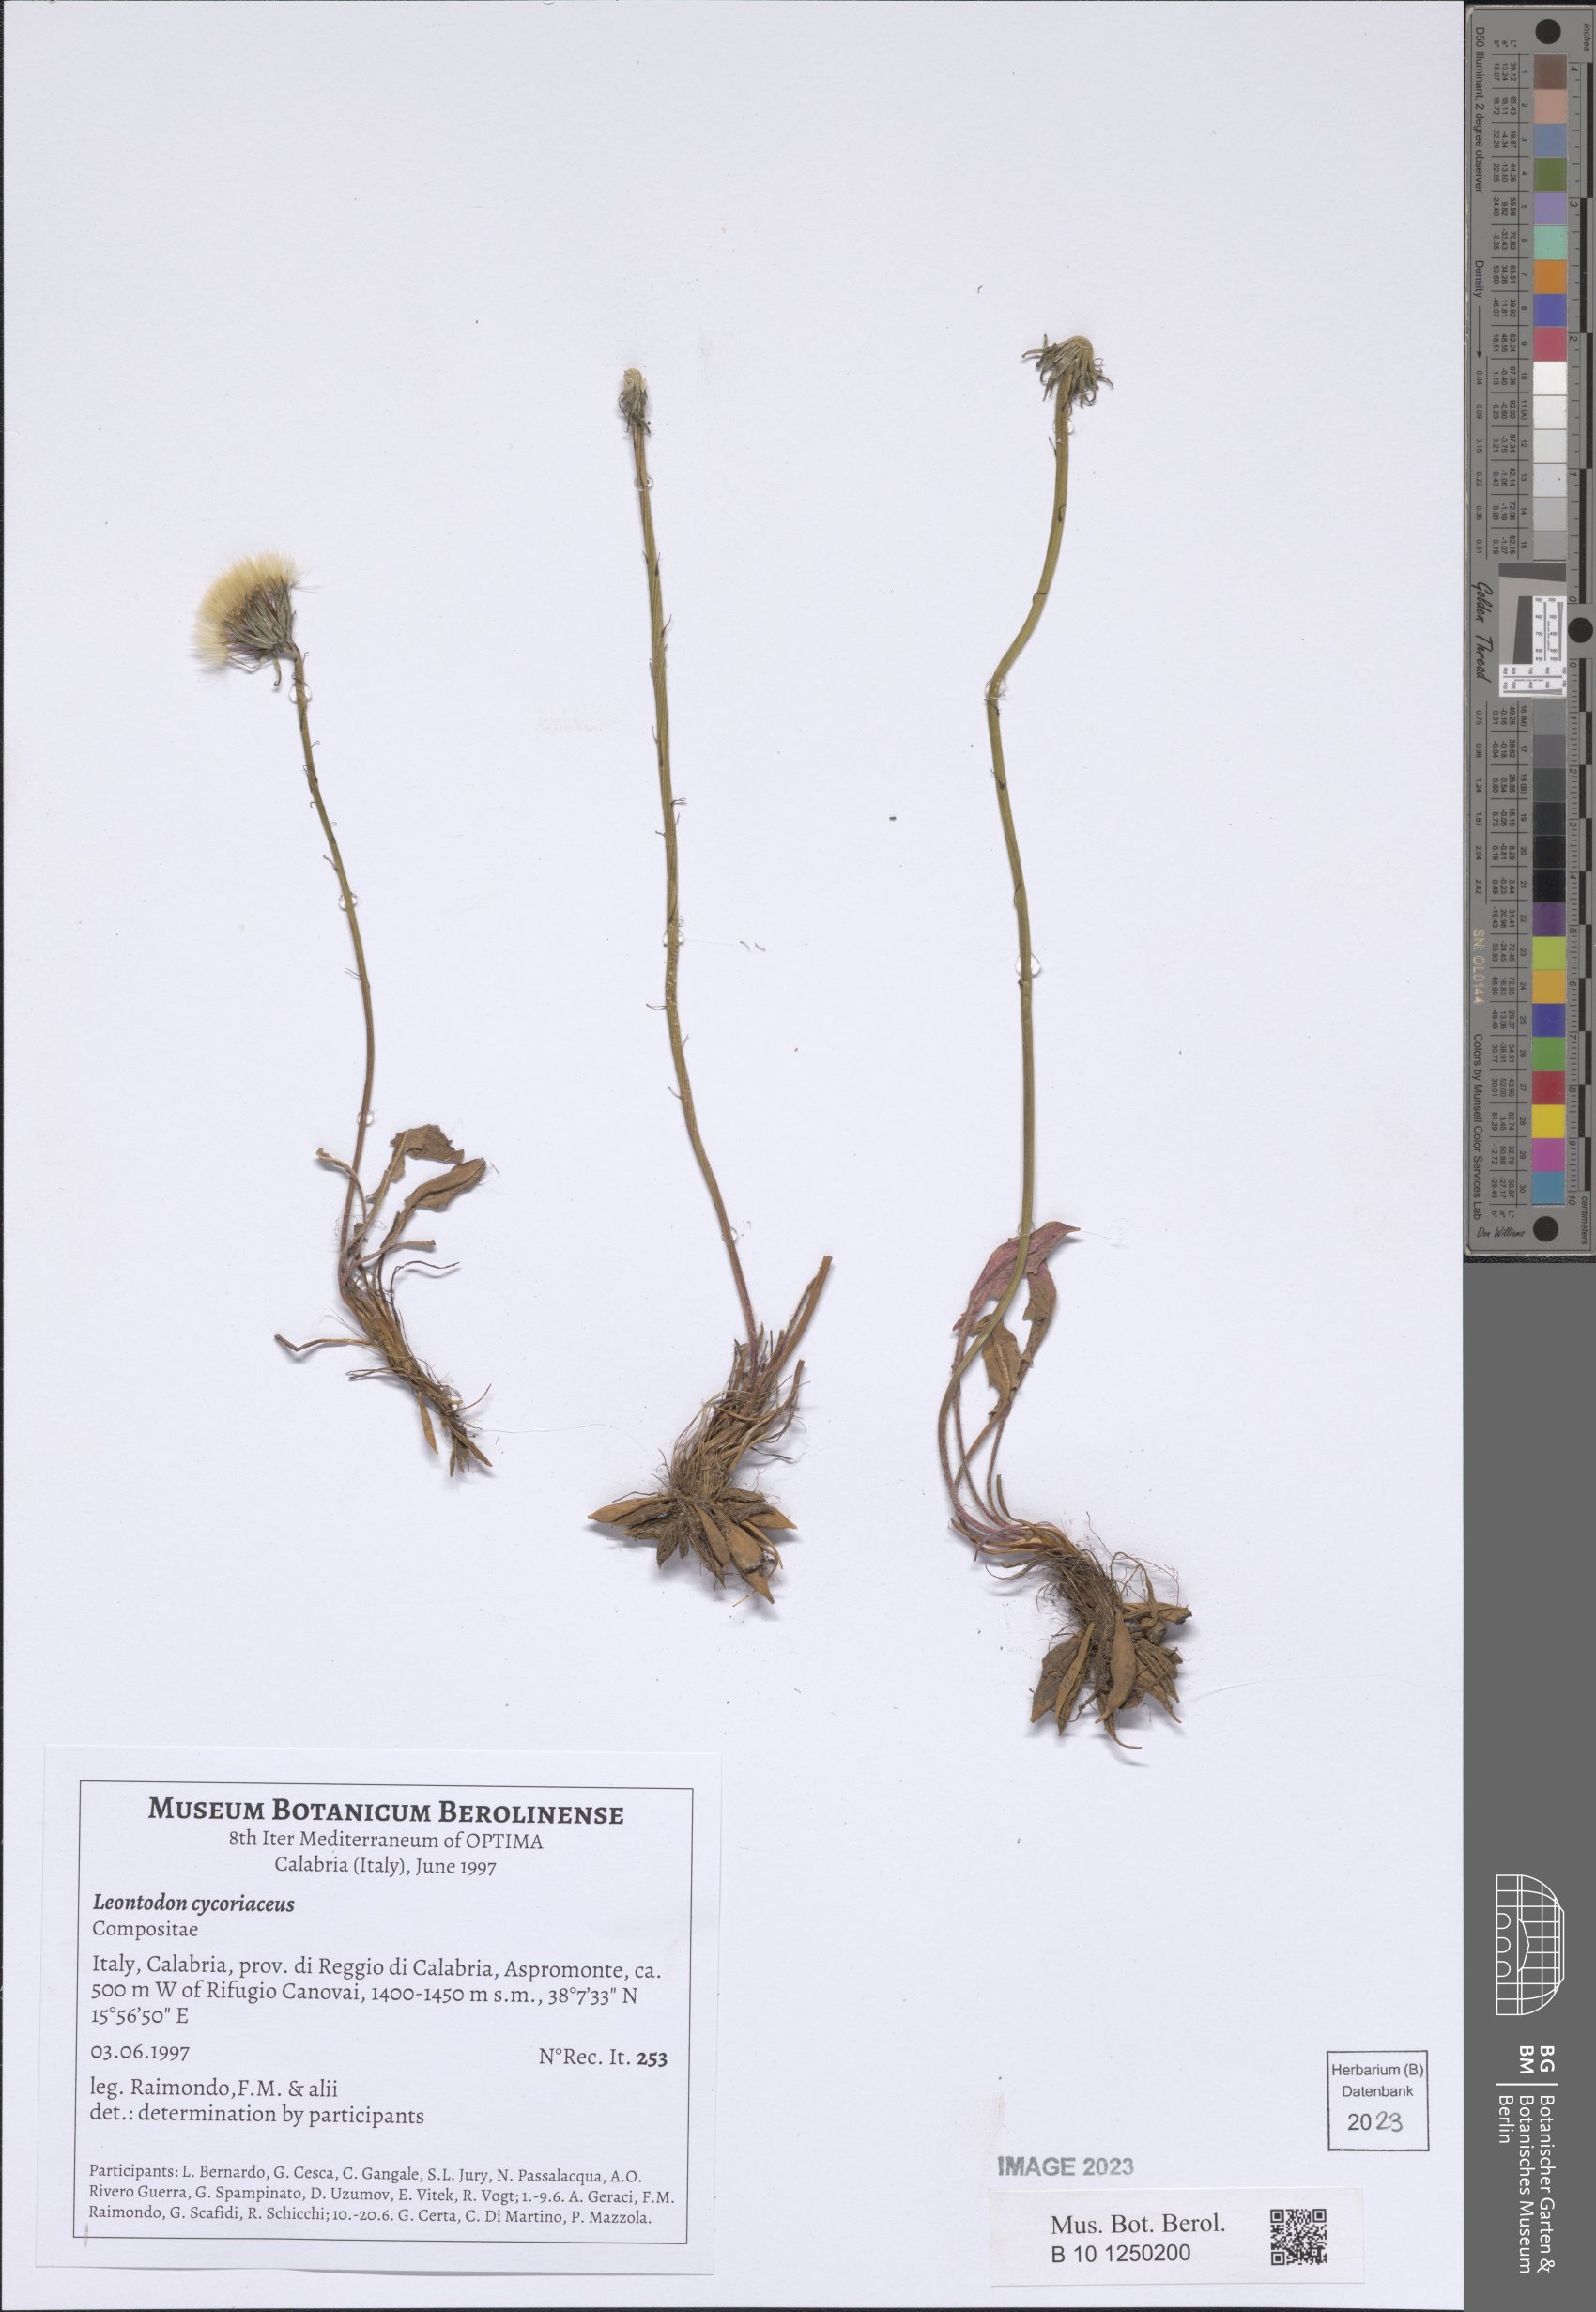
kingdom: Plantae
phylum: Tracheophyta
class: Magnoliopsida
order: Asterales
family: Asteraceae
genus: Scorzoneroides
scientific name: Scorzoneroides cichoriacea
